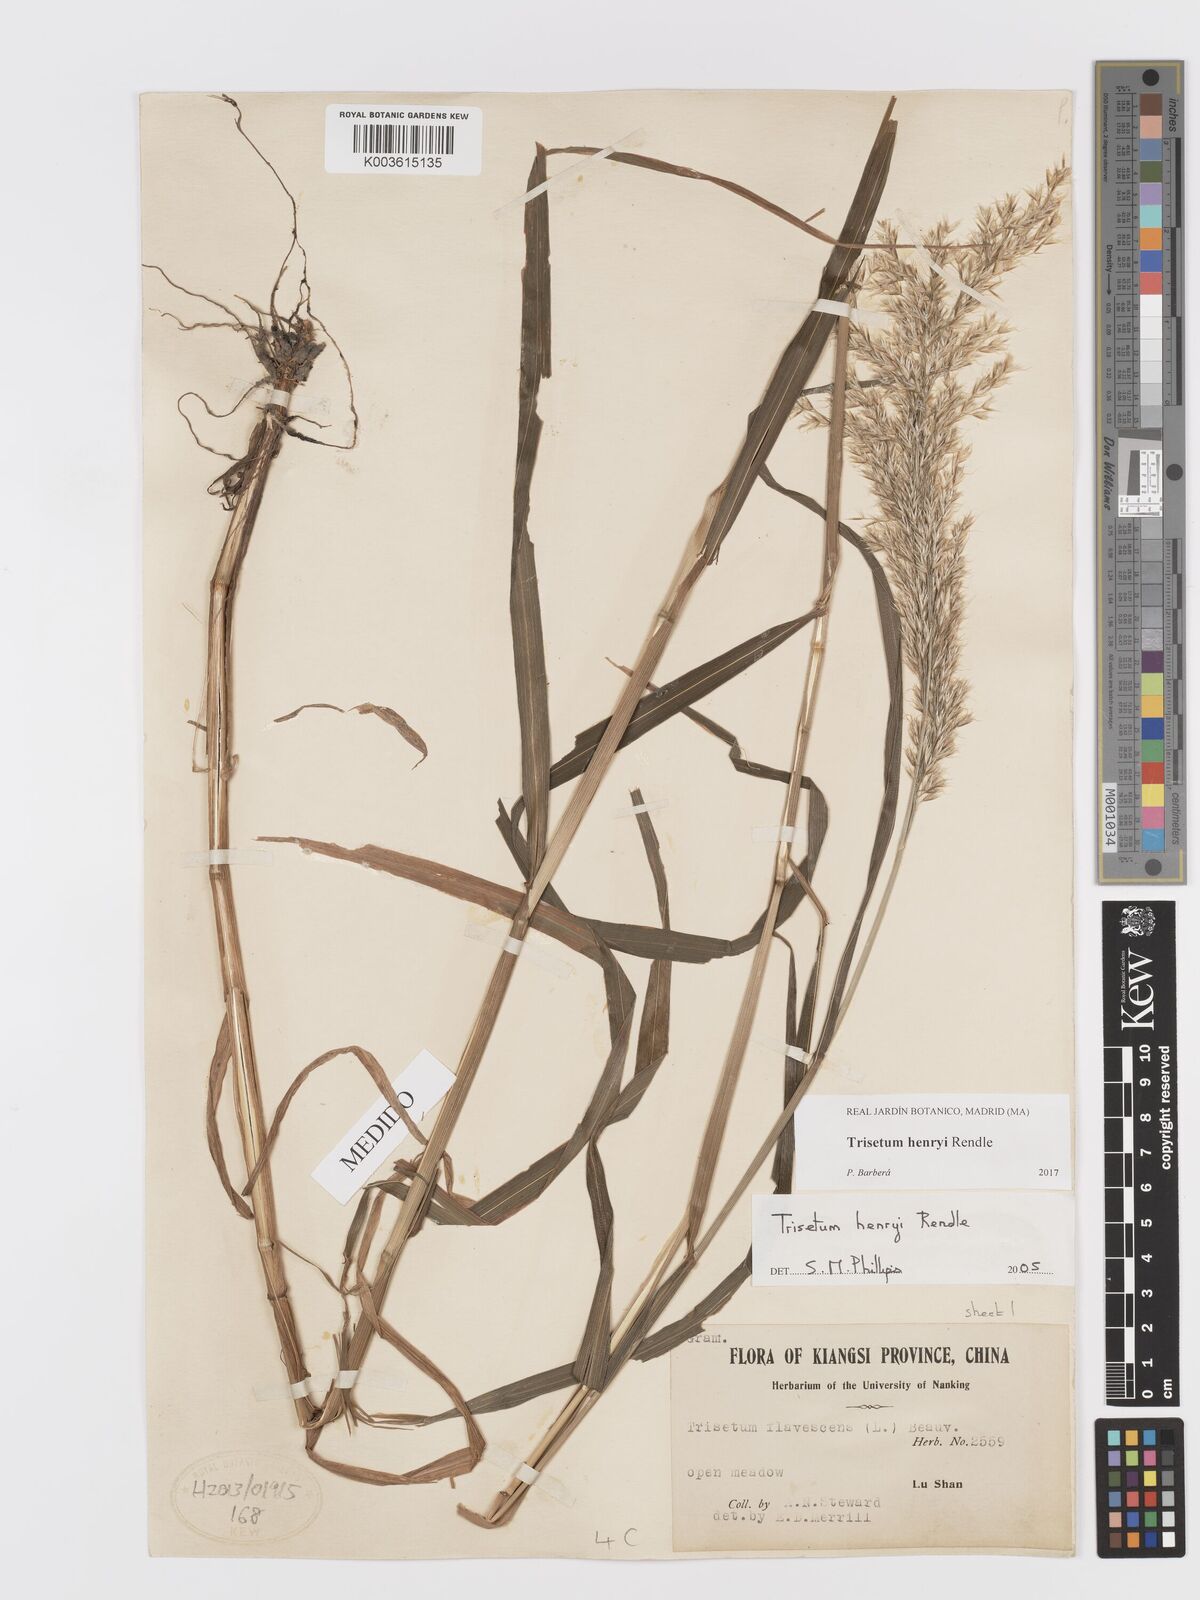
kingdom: Plantae
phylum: Tracheophyta
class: Liliopsida
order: Poales
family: Poaceae
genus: Sibirotrisetum
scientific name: Sibirotrisetum henryi
